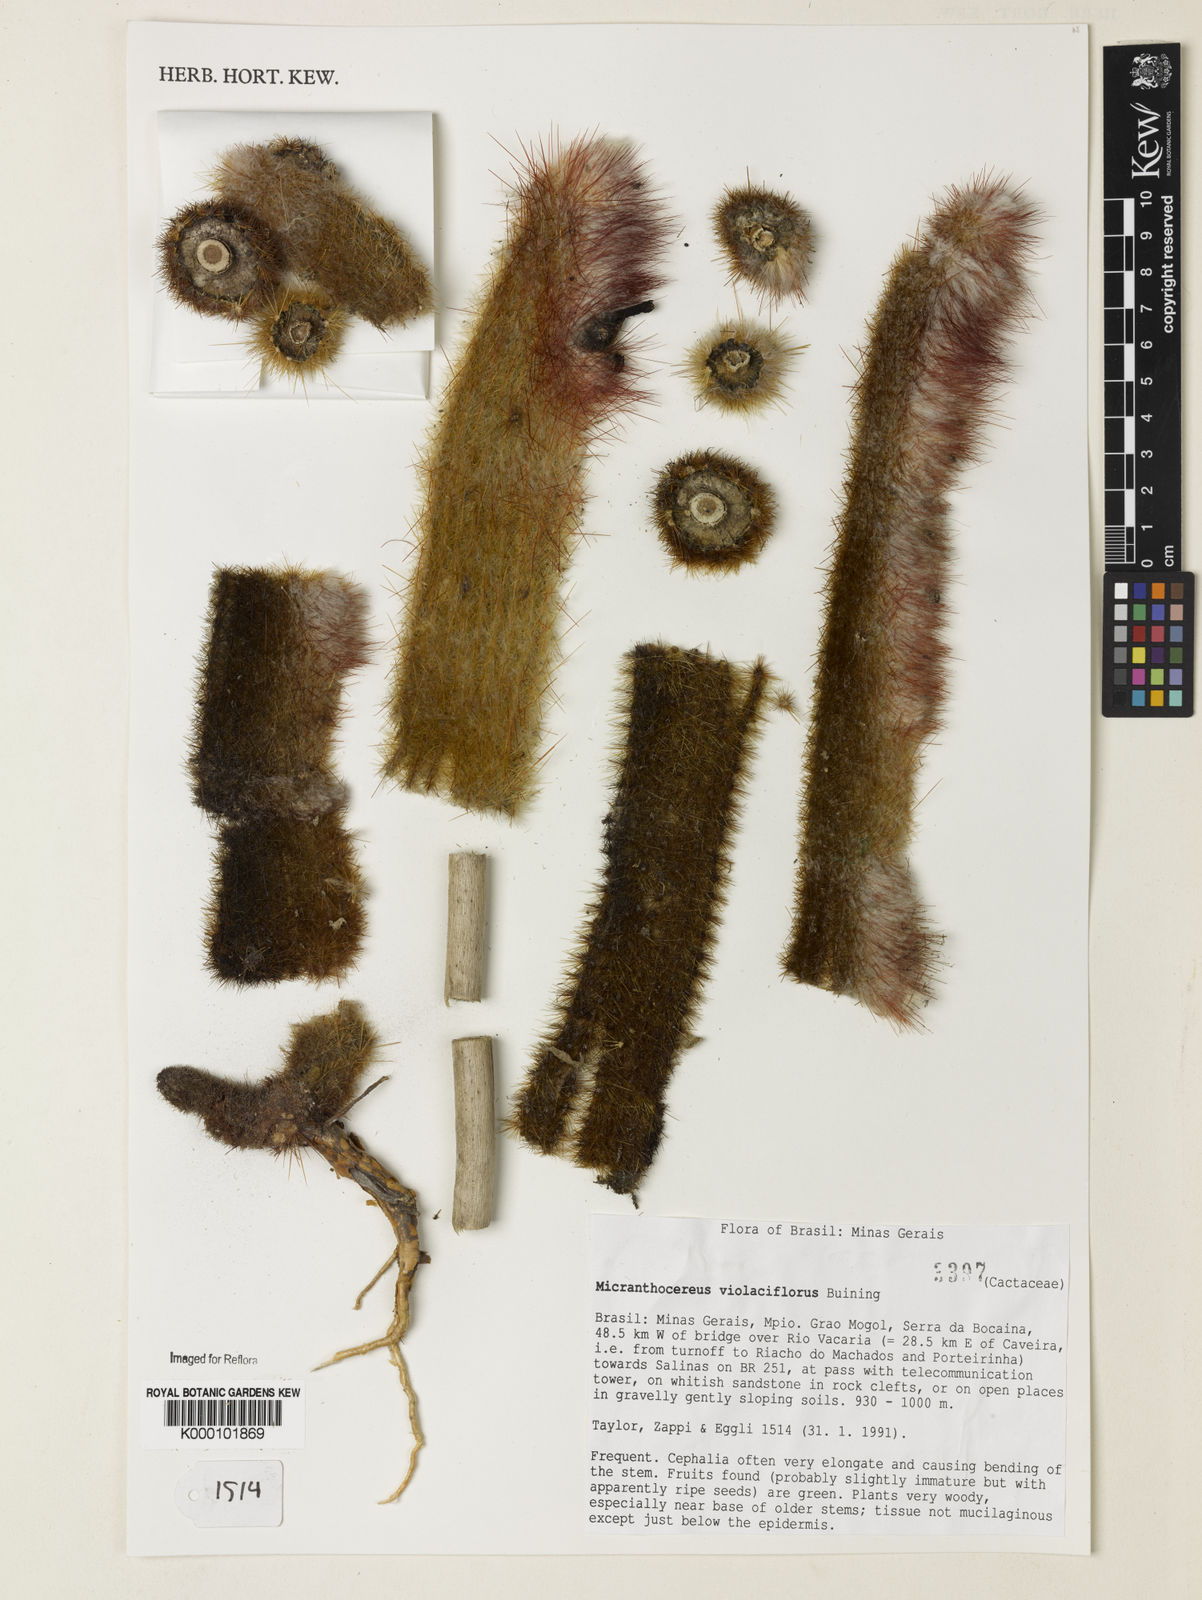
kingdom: Plantae
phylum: Tracheophyta
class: Magnoliopsida
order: Caryophyllales
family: Cactaceae
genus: Micranthocereus
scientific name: Micranthocereus violaciflorus
